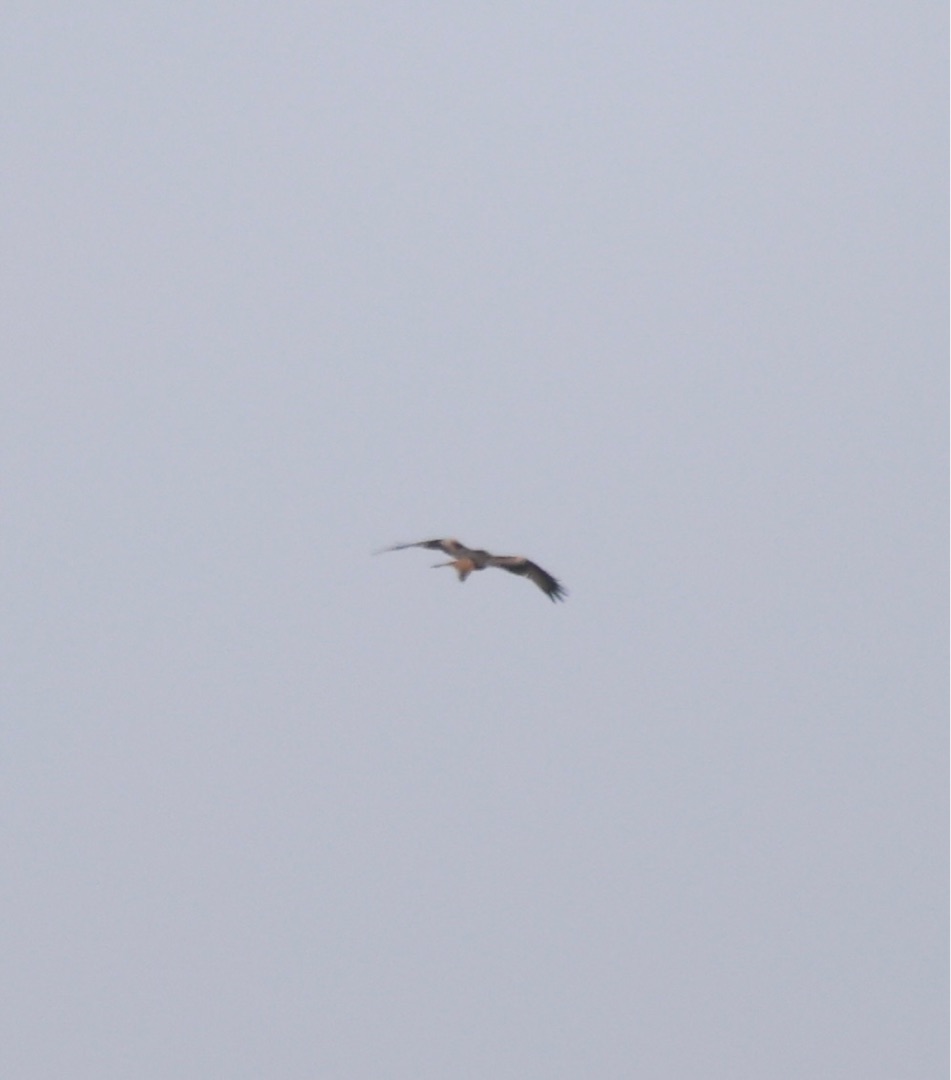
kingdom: Animalia
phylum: Chordata
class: Aves
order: Accipitriformes
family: Accipitridae
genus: Milvus
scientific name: Milvus milvus
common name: Rød glente
